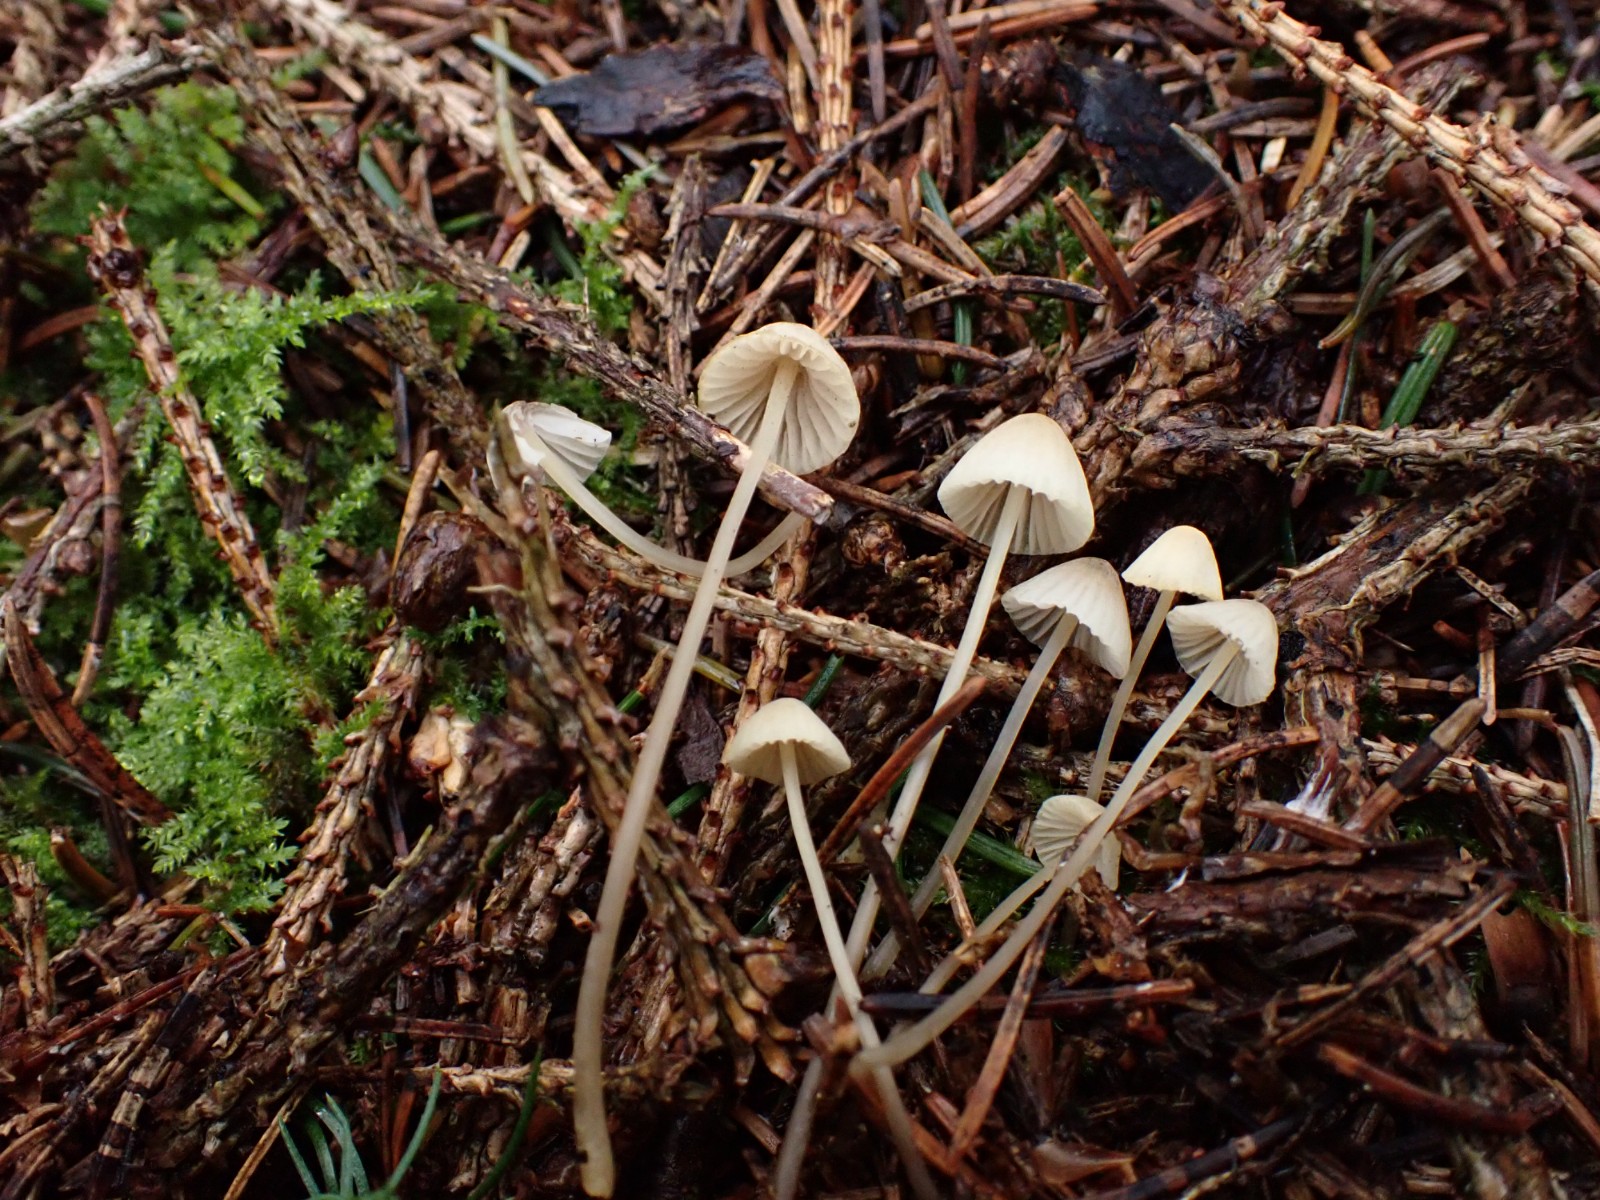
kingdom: Fungi
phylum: Basidiomycota
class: Agaricomycetes
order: Agaricales
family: Mycenaceae
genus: Mycena
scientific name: Mycena citrinomarginata
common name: gulægget huesvamp
